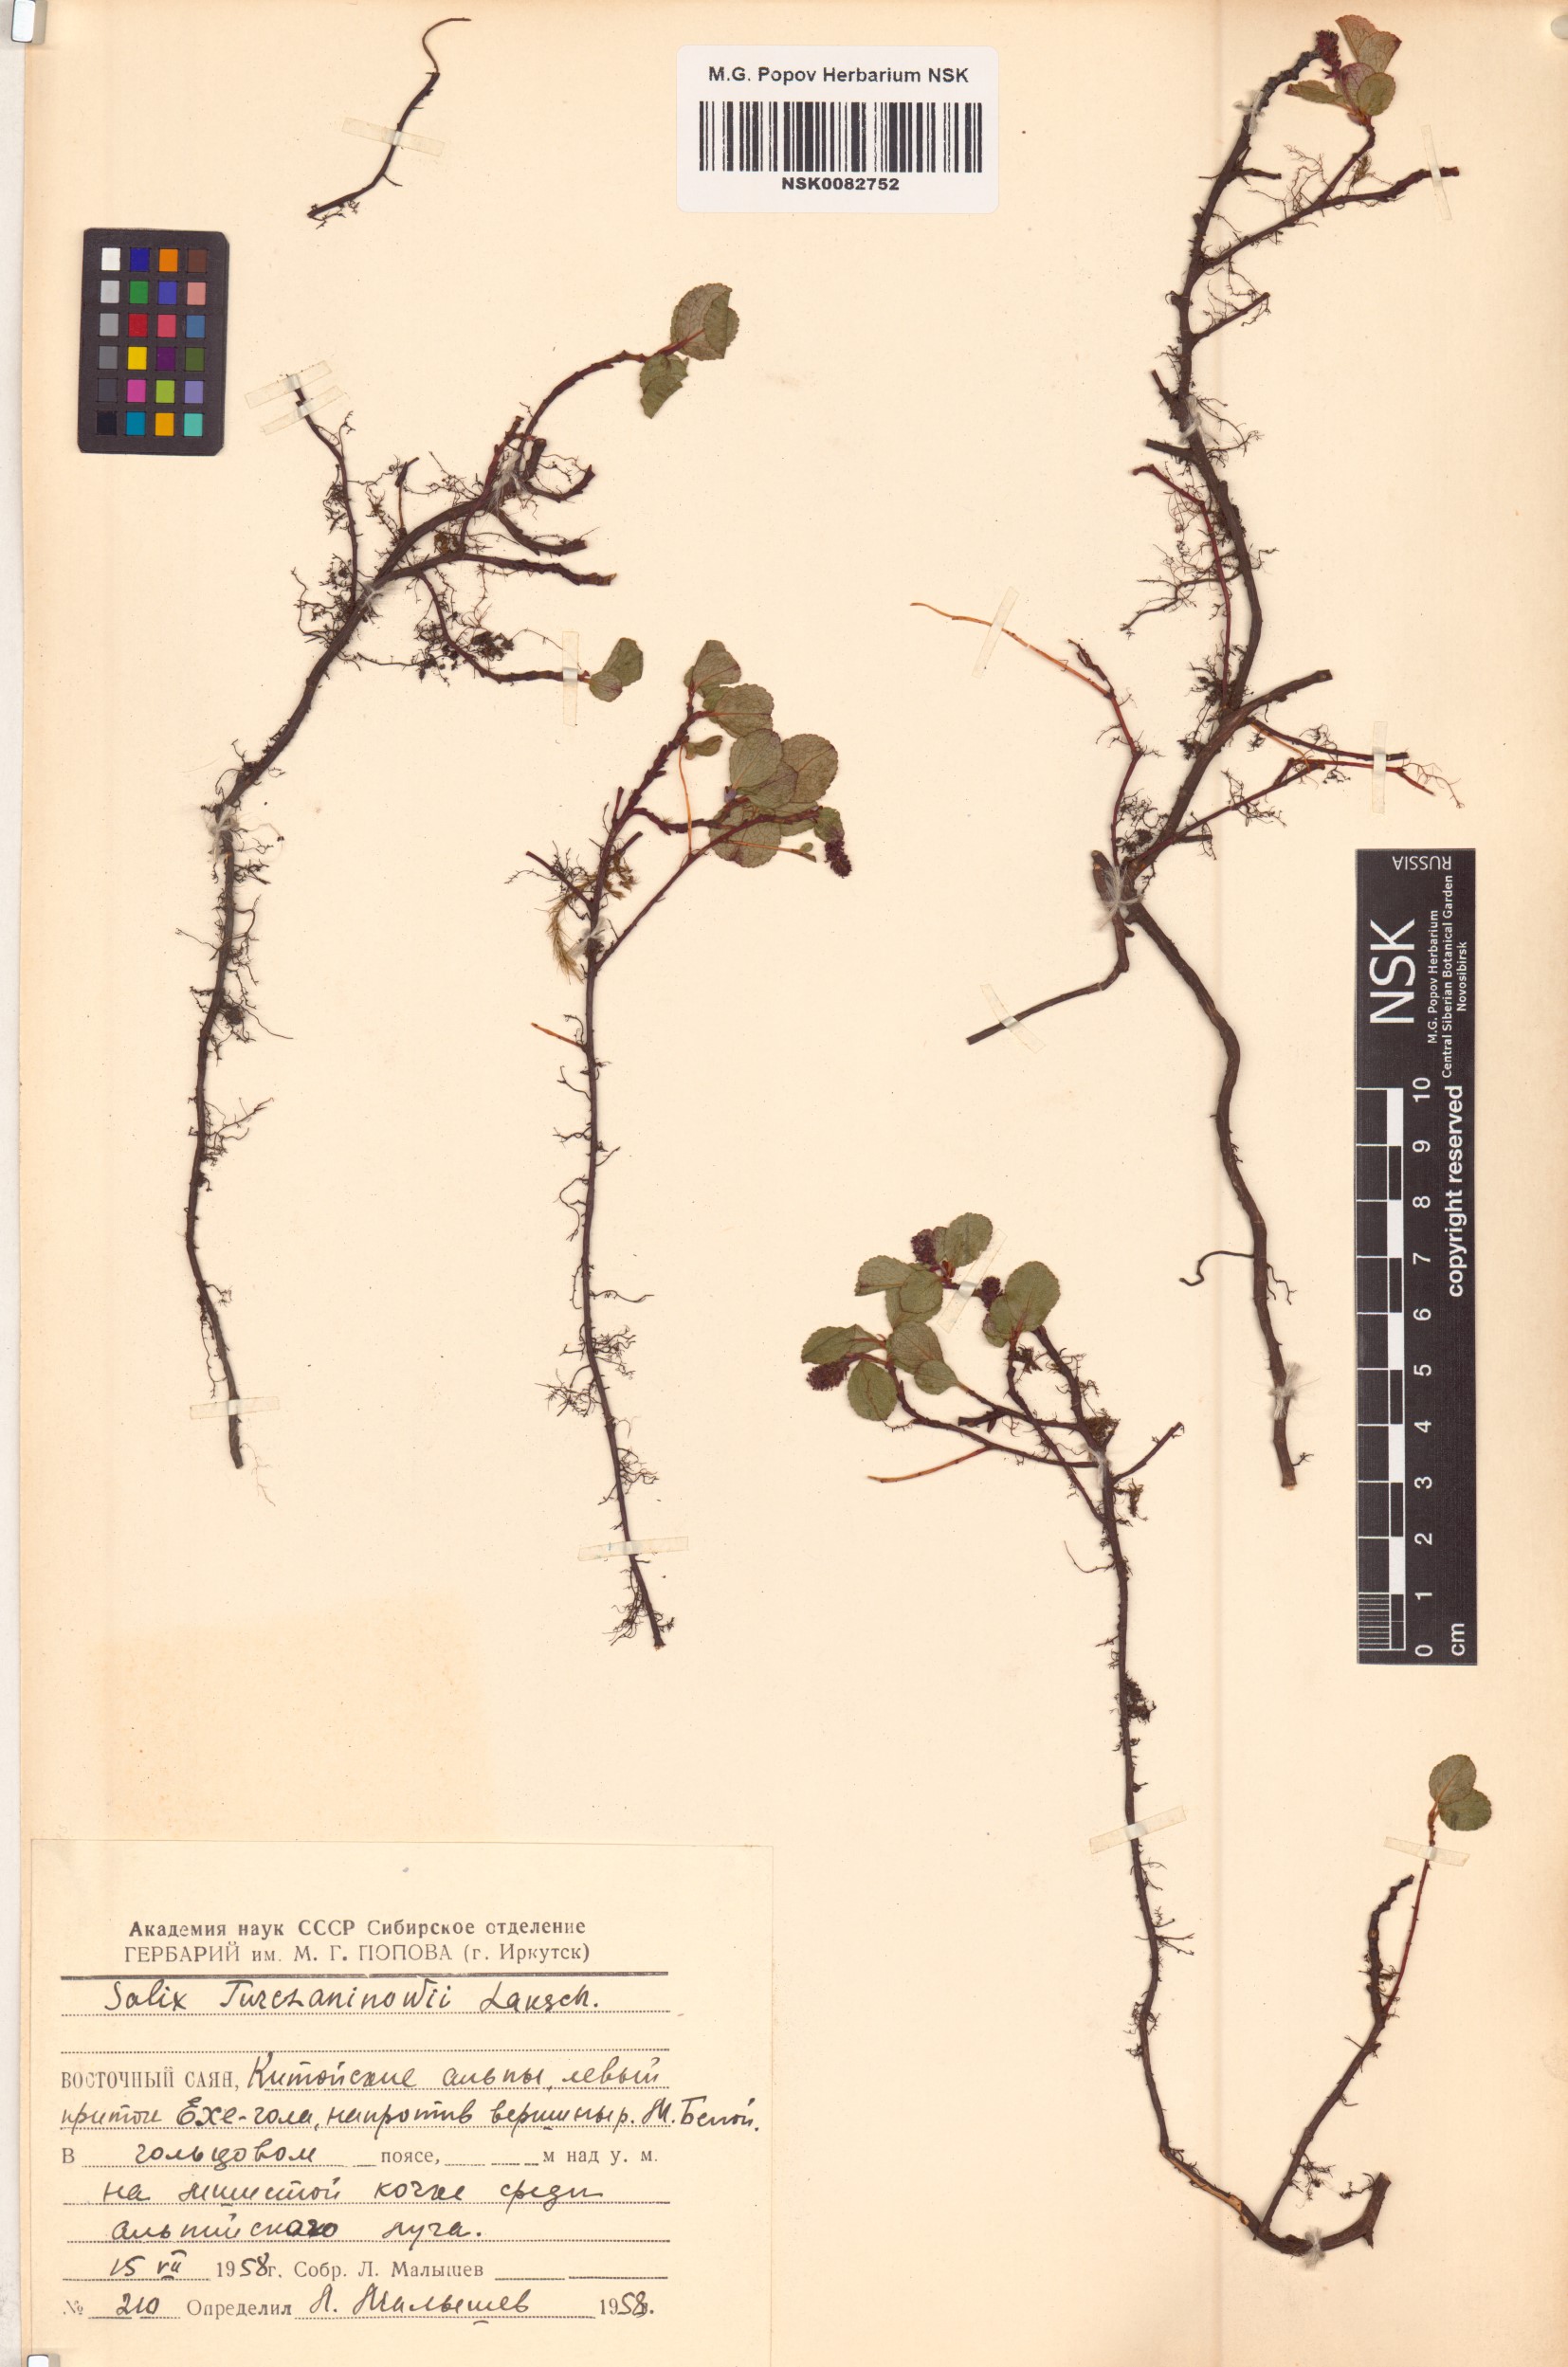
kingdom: Plantae
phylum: Tracheophyta
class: Magnoliopsida
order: Malpighiales
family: Salicaceae
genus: Salix
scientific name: Salix turczaninowii
